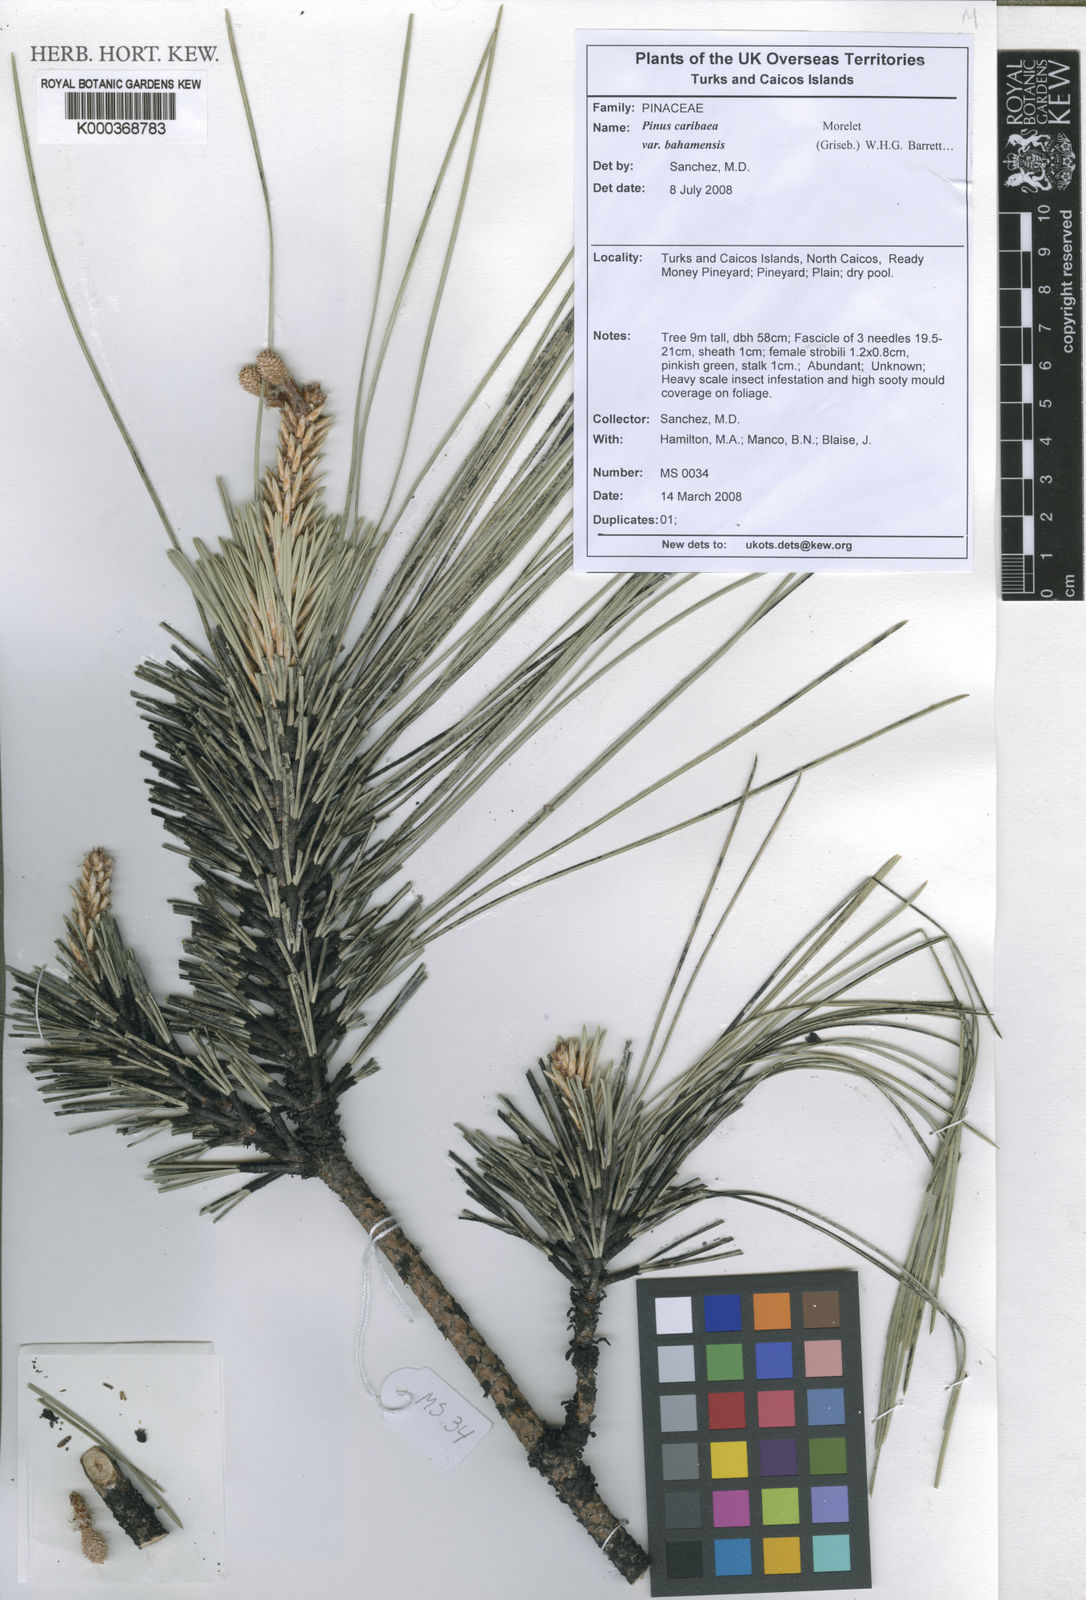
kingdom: Plantae
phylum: Tracheophyta
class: Pinopsida
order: Pinales
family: Pinaceae
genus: Pinus
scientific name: Pinus caribaea
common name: Caribbean pine
